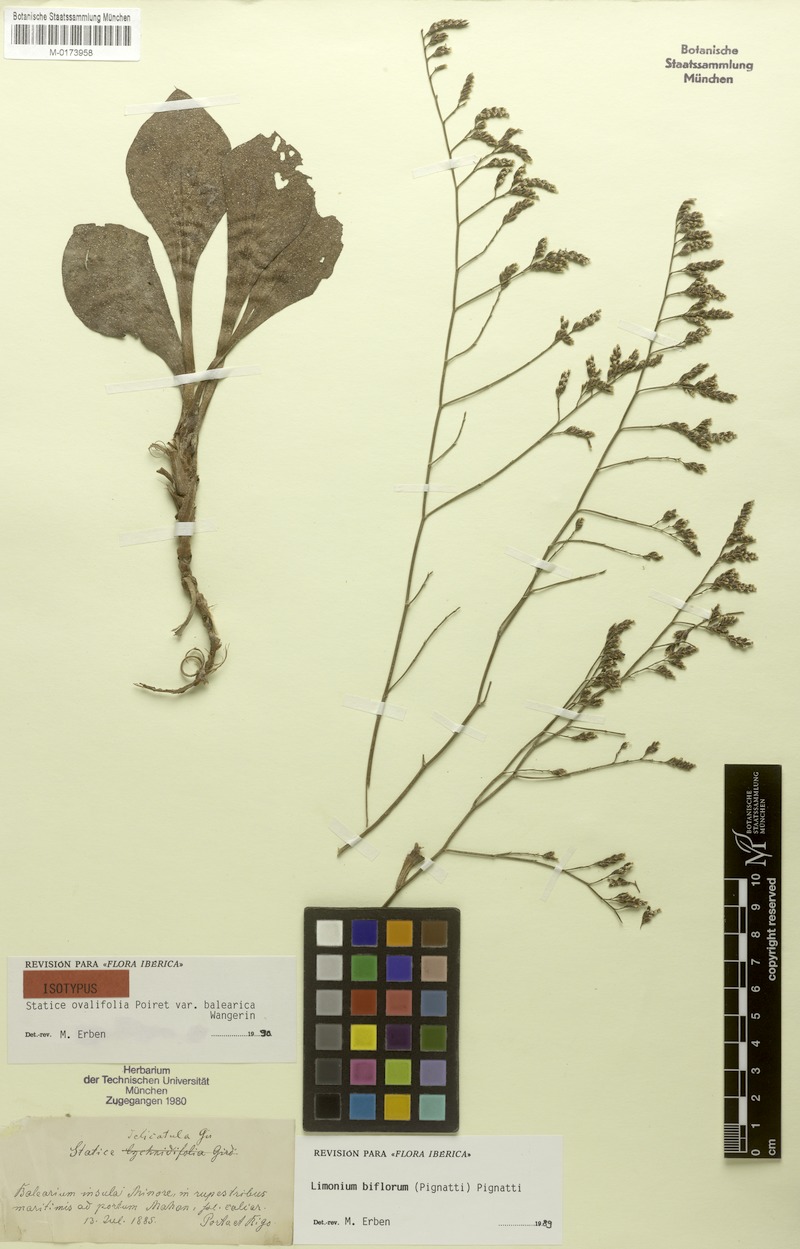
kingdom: Plantae
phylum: Tracheophyta
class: Magnoliopsida
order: Caryophyllales
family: Plumbaginaceae
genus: Limonium
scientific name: Limonium biflorum
